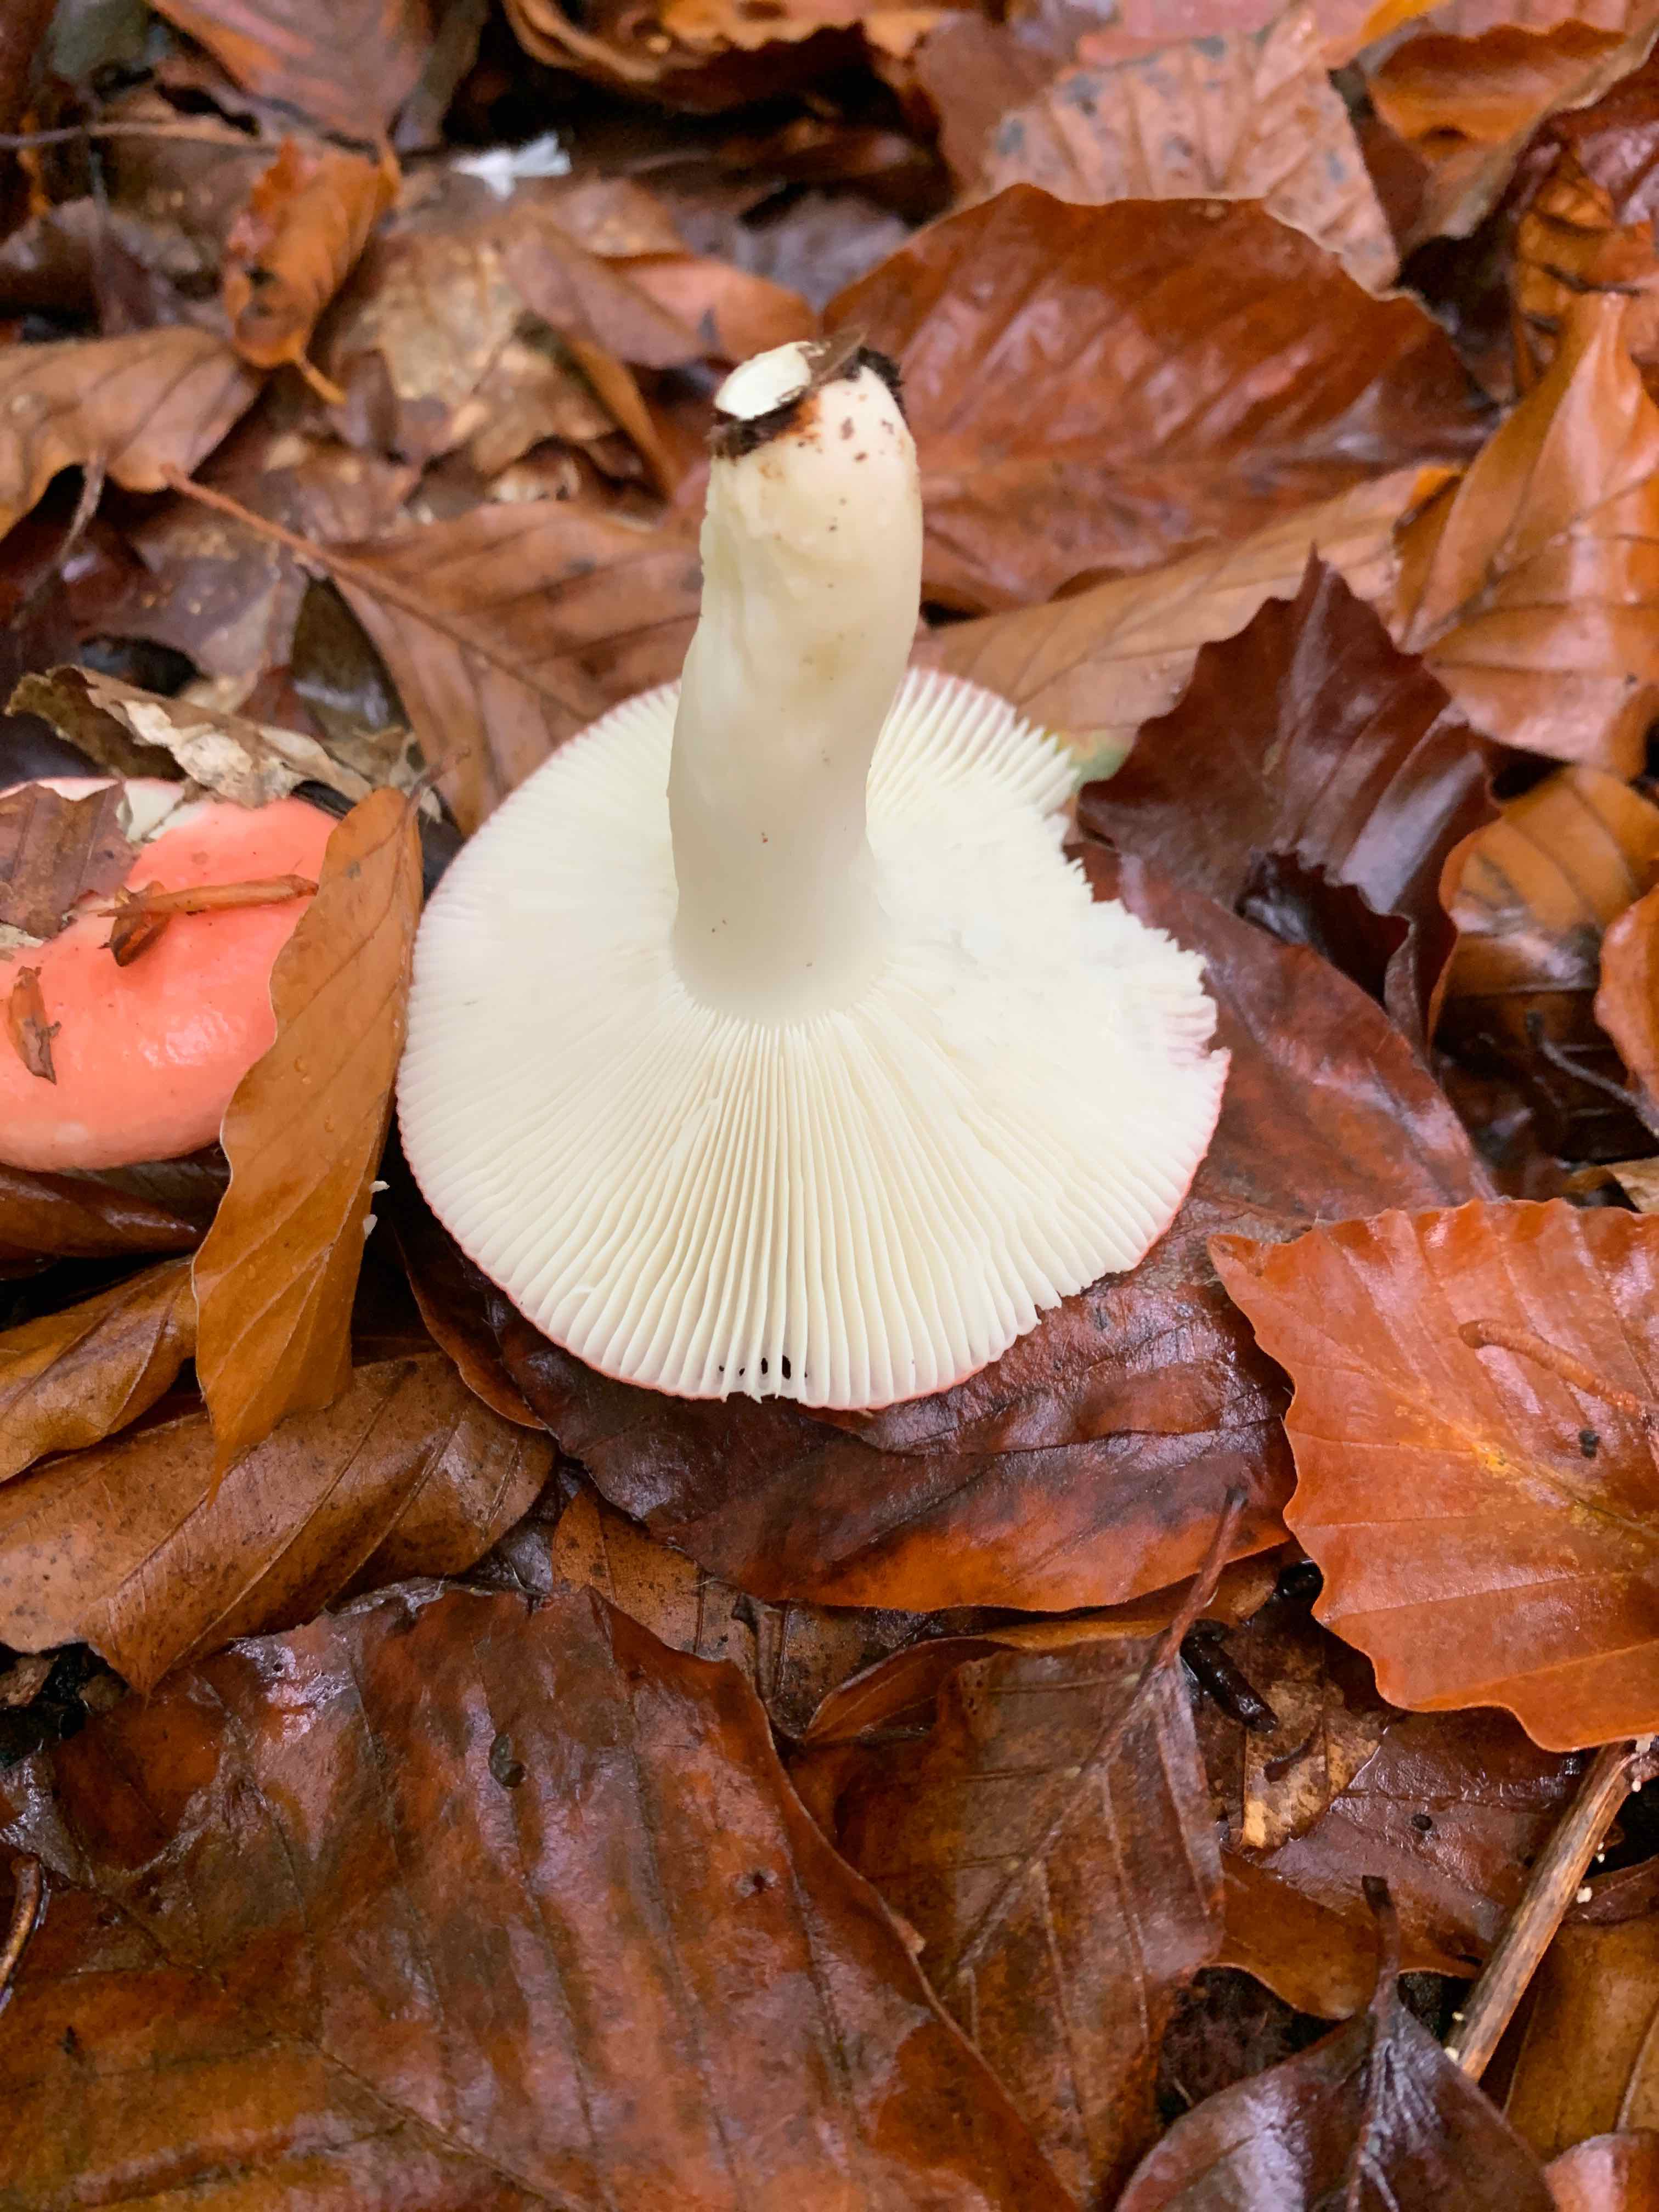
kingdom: Fungi
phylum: Basidiomycota
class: Agaricomycetes
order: Russulales
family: Russulaceae
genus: Russula
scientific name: Russula
